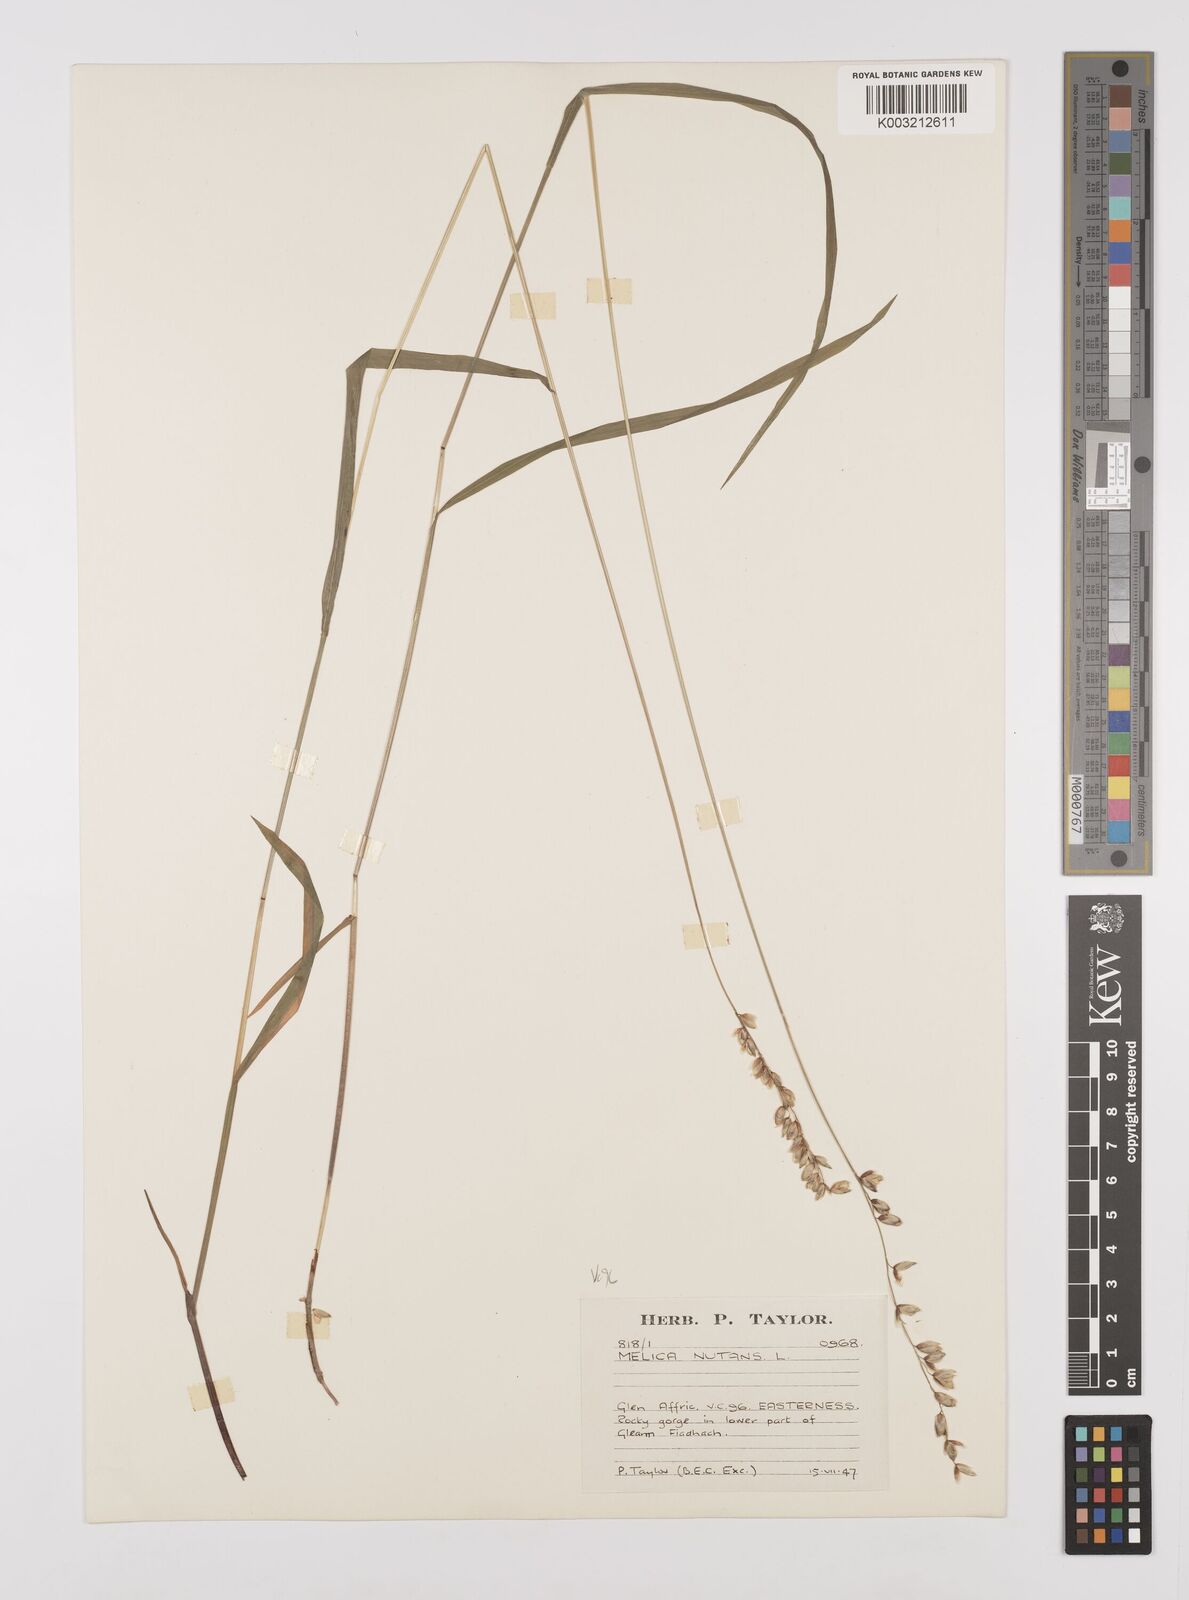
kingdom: Plantae
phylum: Tracheophyta
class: Liliopsida
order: Poales
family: Poaceae
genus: Melica
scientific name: Melica
